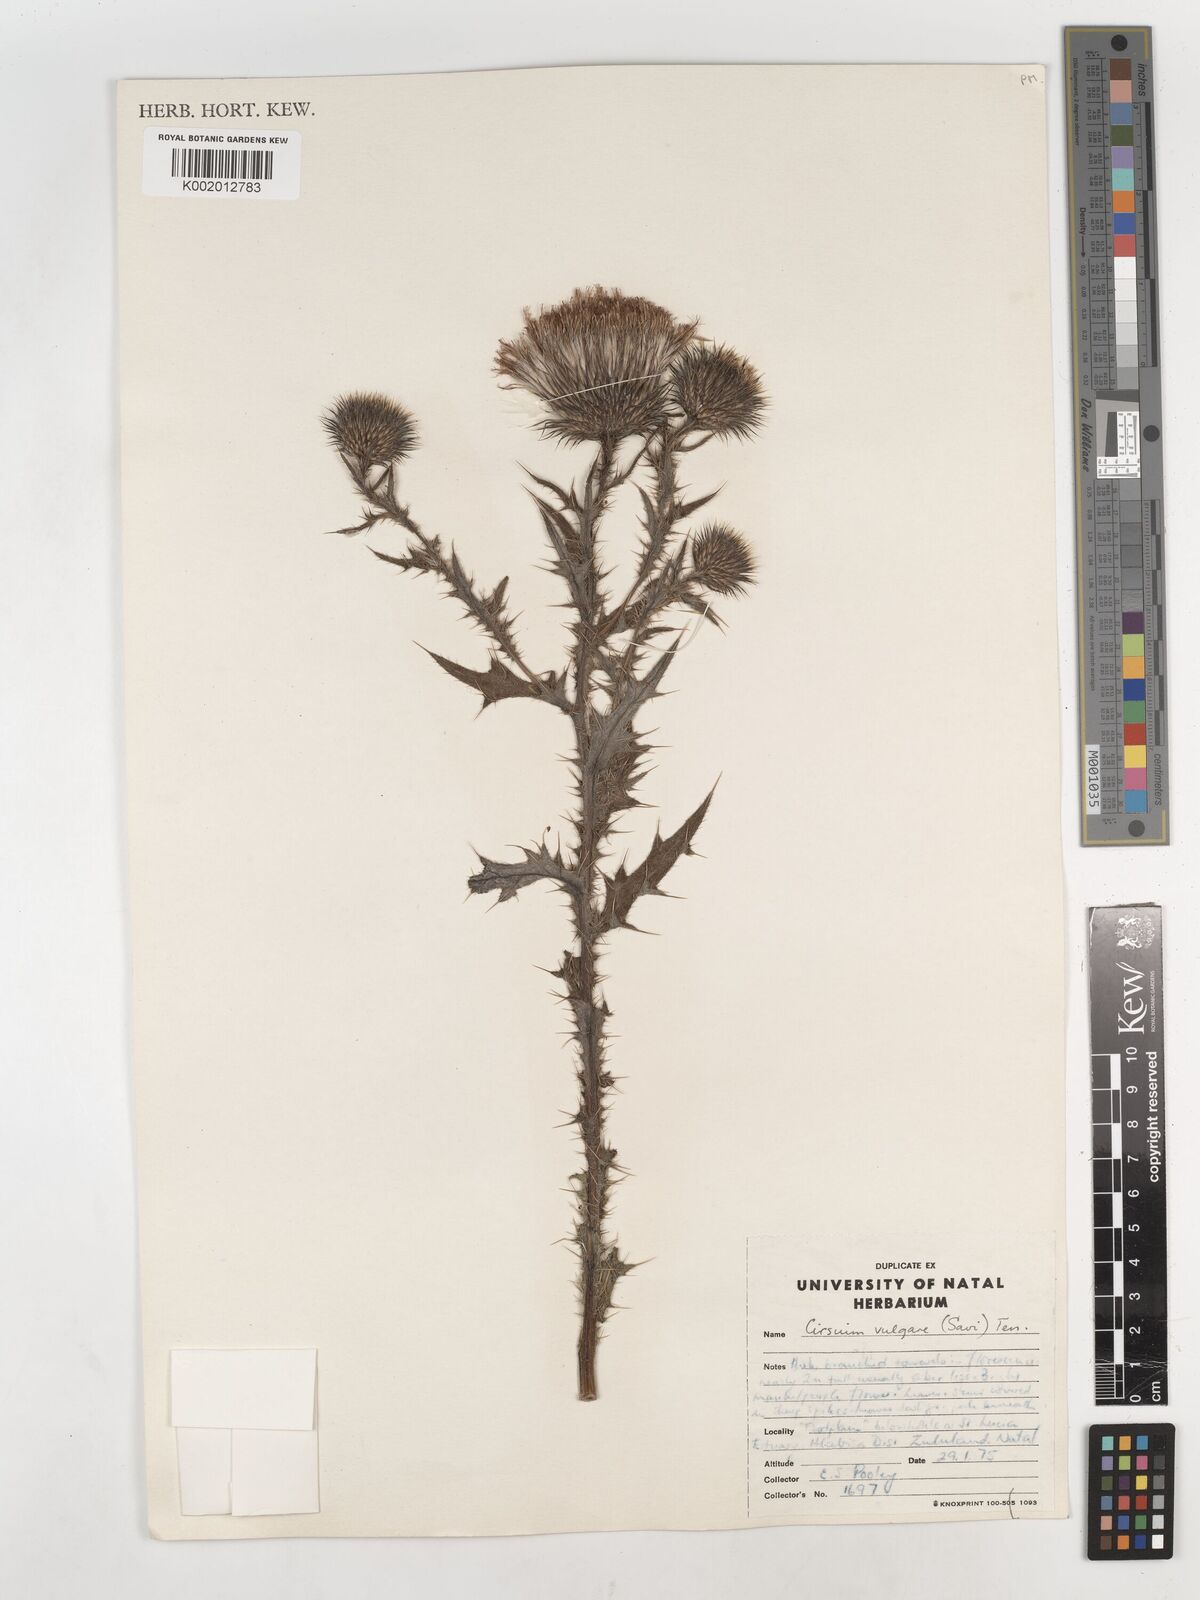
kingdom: Plantae
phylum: Tracheophyta
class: Magnoliopsida
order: Asterales
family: Asteraceae
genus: Cirsium
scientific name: Cirsium vulgare
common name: Bull thistle
